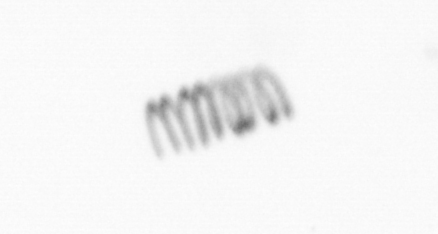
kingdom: Chromista
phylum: Ochrophyta
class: Bacillariophyceae
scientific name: Bacillariophyceae
